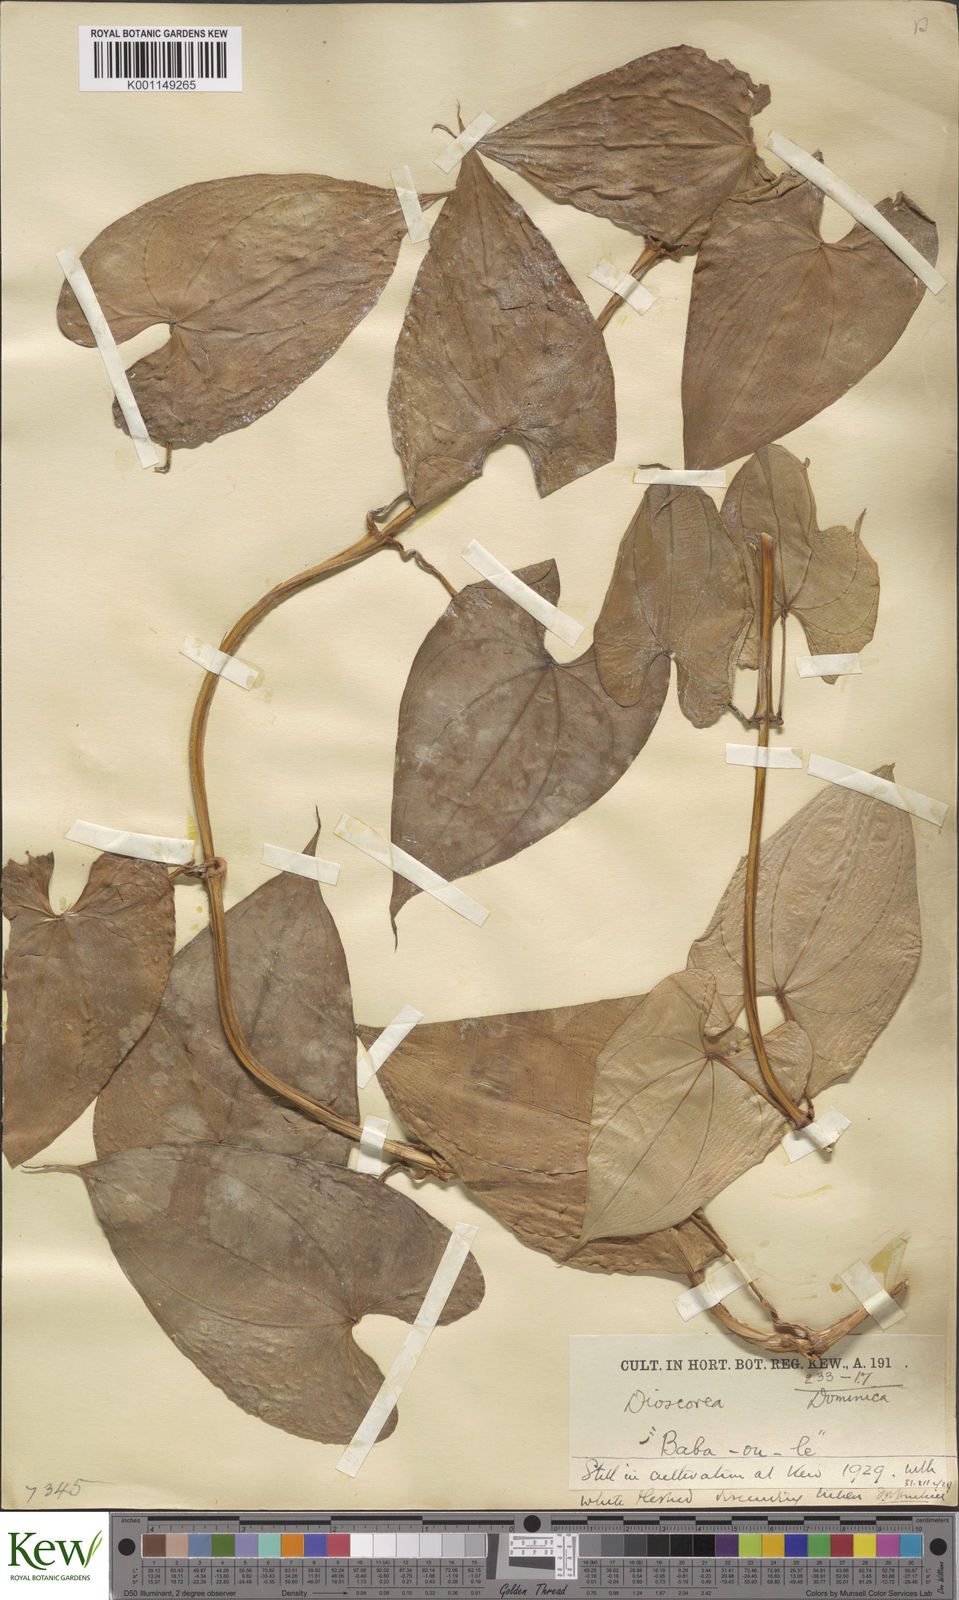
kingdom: Plantae
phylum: Tracheophyta
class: Liliopsida
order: Dioscoreales
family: Dioscoreaceae
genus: Dioscorea
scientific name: Dioscorea alata
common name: Water yam
